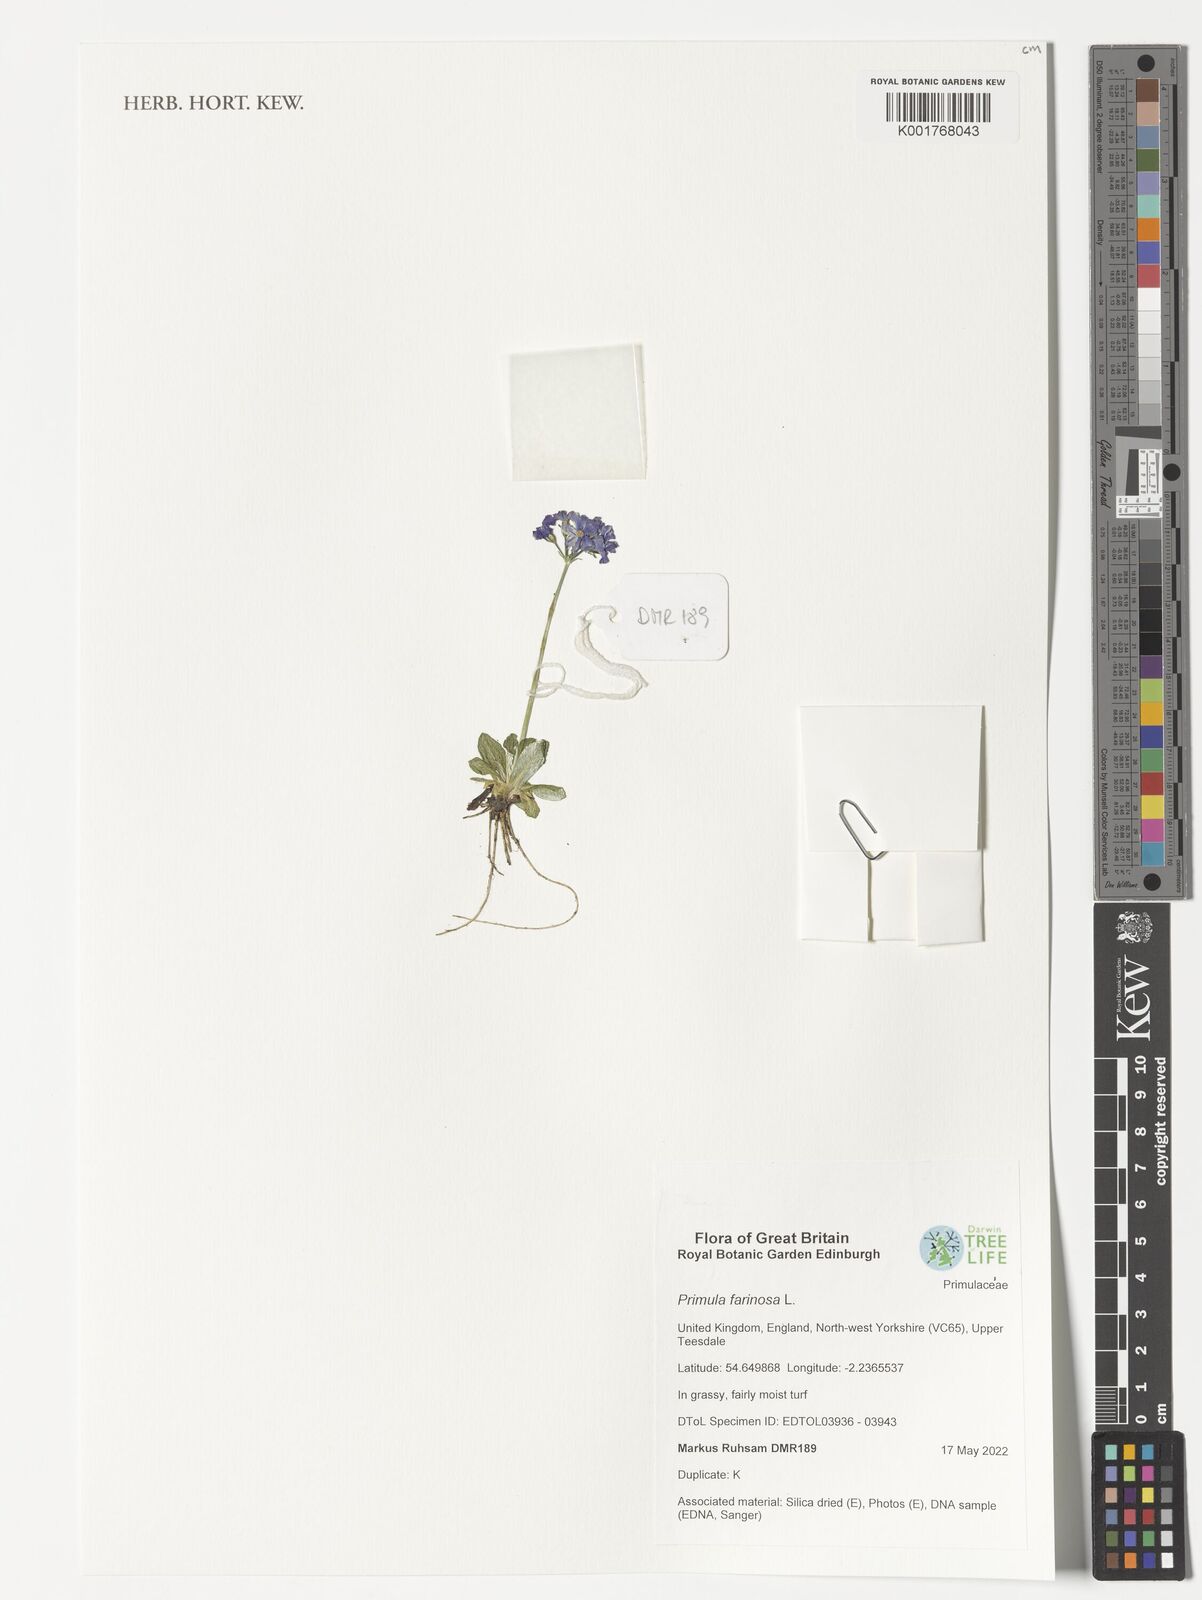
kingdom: Plantae
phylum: Tracheophyta
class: Magnoliopsida
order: Ericales
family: Primulaceae
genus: Primula
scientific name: Primula farinosa
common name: Bird's-eye primrose
